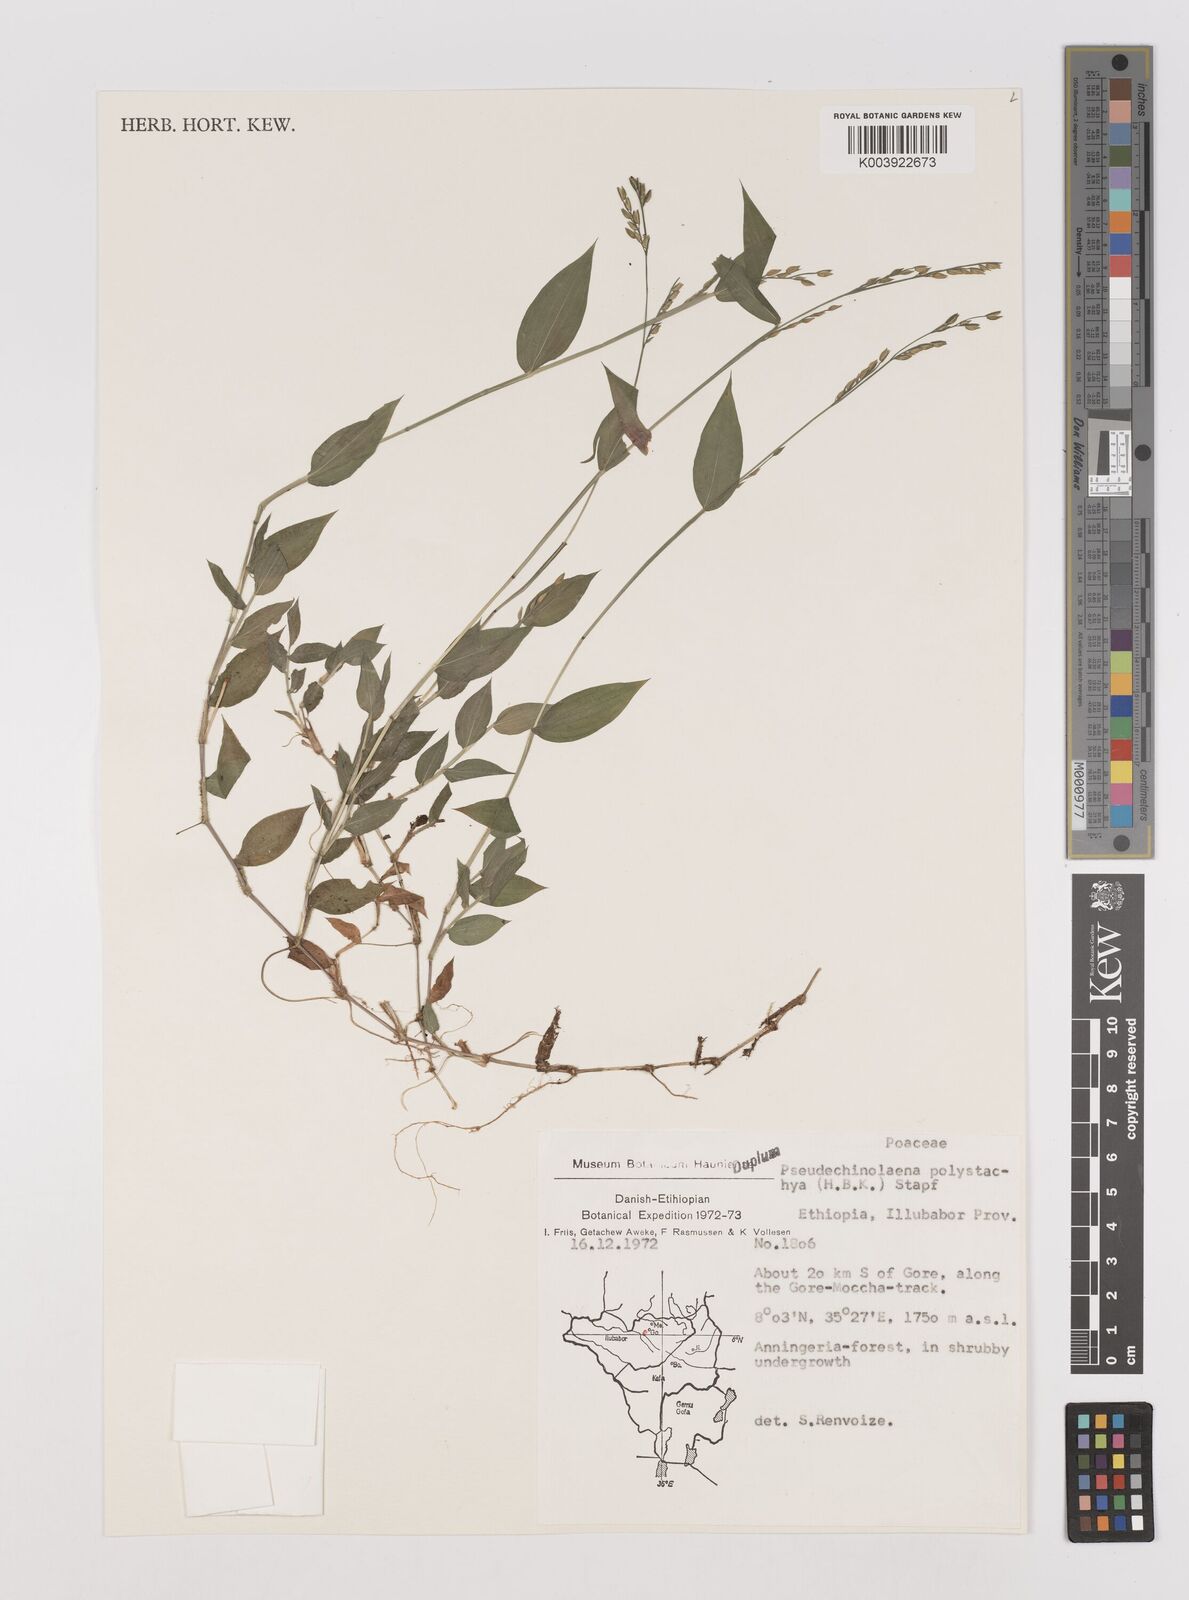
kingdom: Plantae
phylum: Tracheophyta
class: Liliopsida
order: Poales
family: Poaceae
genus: Pseudechinolaena
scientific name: Pseudechinolaena polystachya
